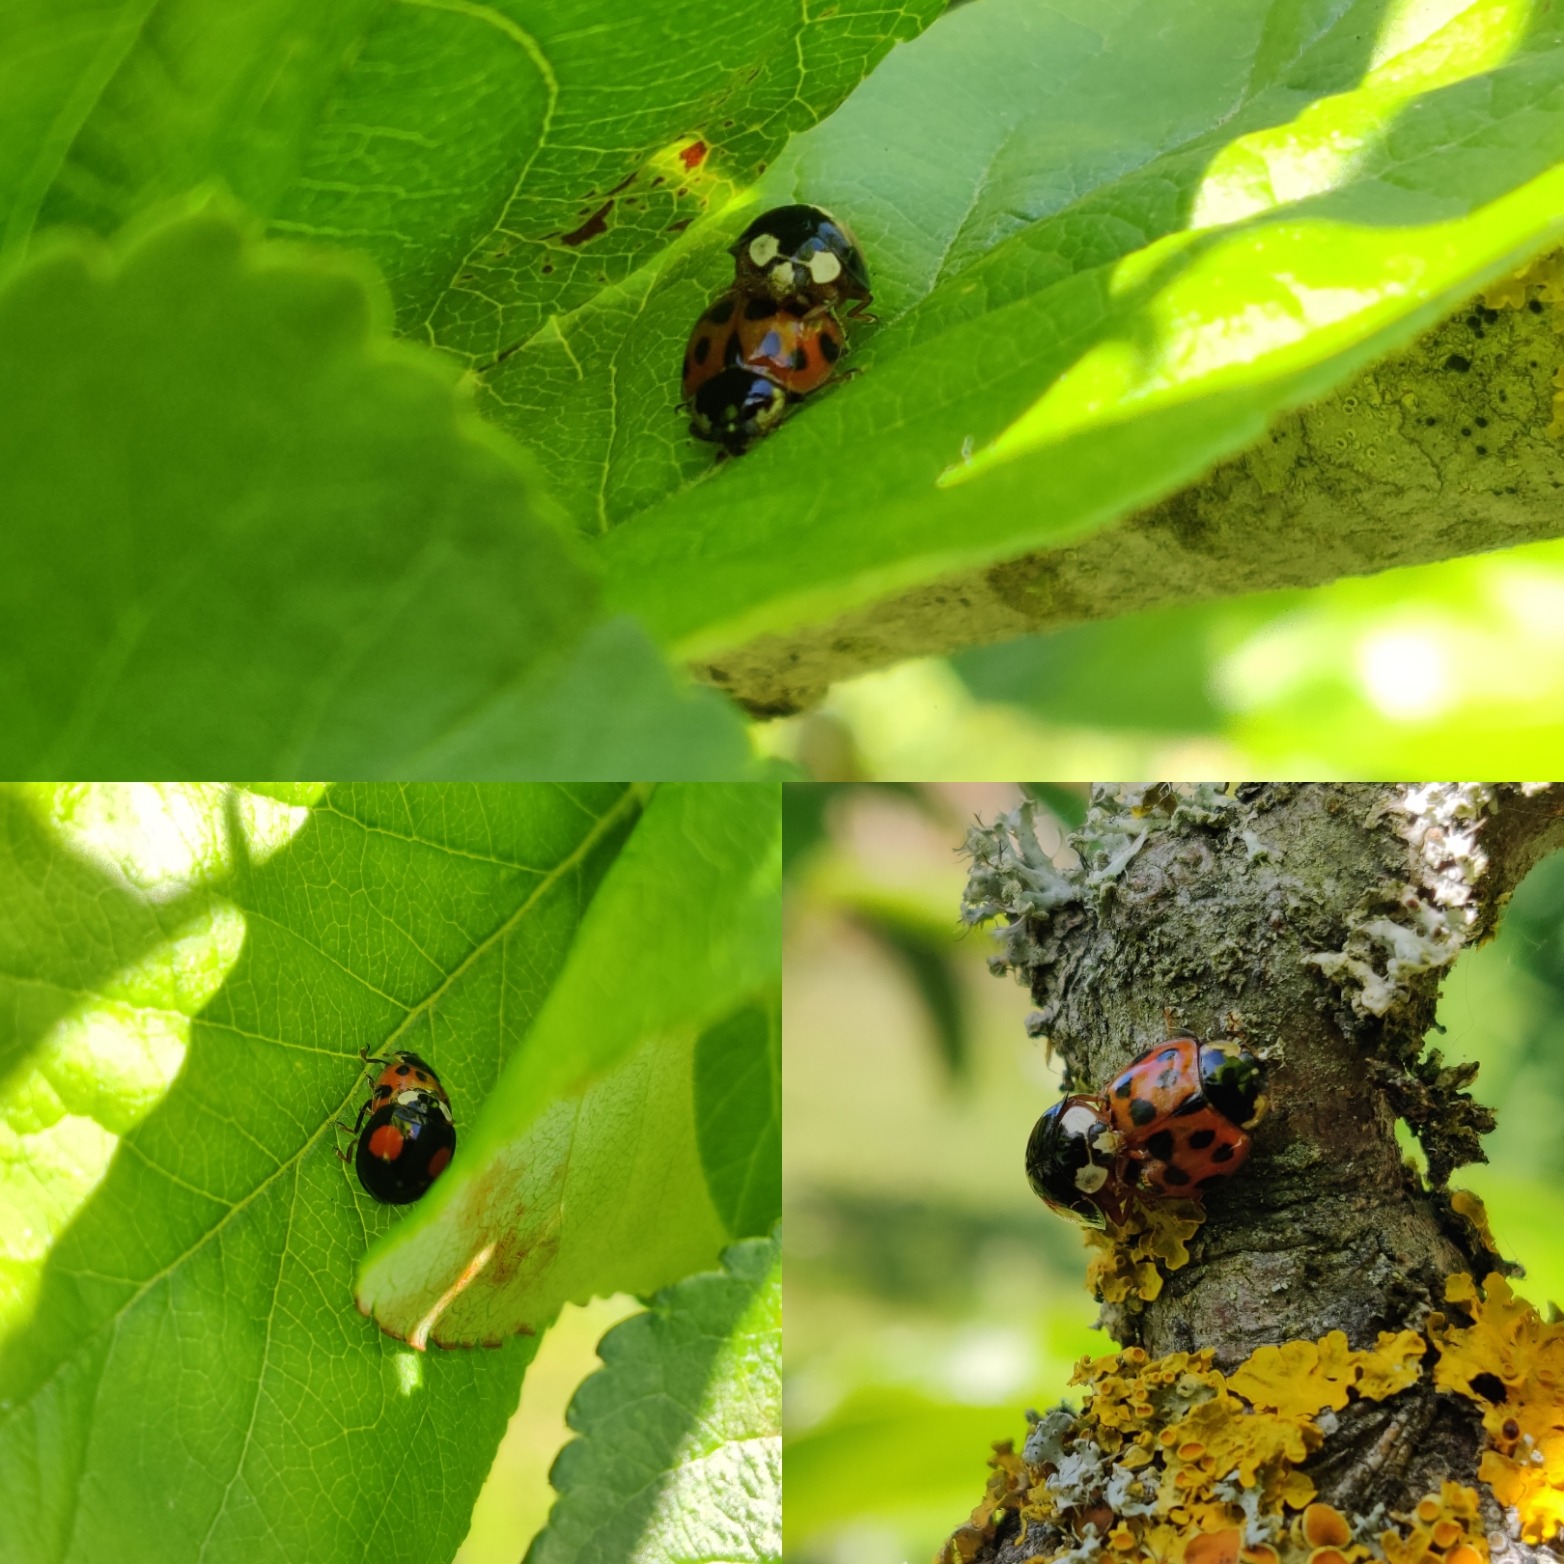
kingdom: Animalia
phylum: Arthropoda
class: Insecta
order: Coleoptera
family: Coccinellidae
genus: Harmonia
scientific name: Harmonia axyridis
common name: Harlekinmariehøne
